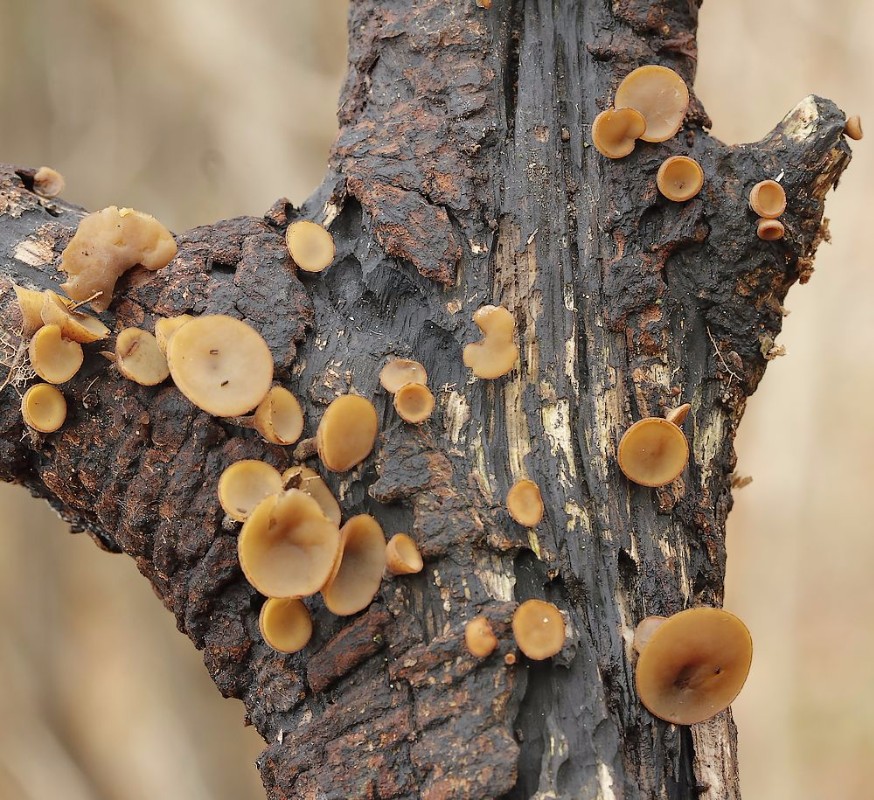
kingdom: Fungi
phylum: Ascomycota
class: Leotiomycetes
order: Helotiales
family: Rutstroemiaceae
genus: Rutstroemia
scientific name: Rutstroemia firma
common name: gren-brunskive
